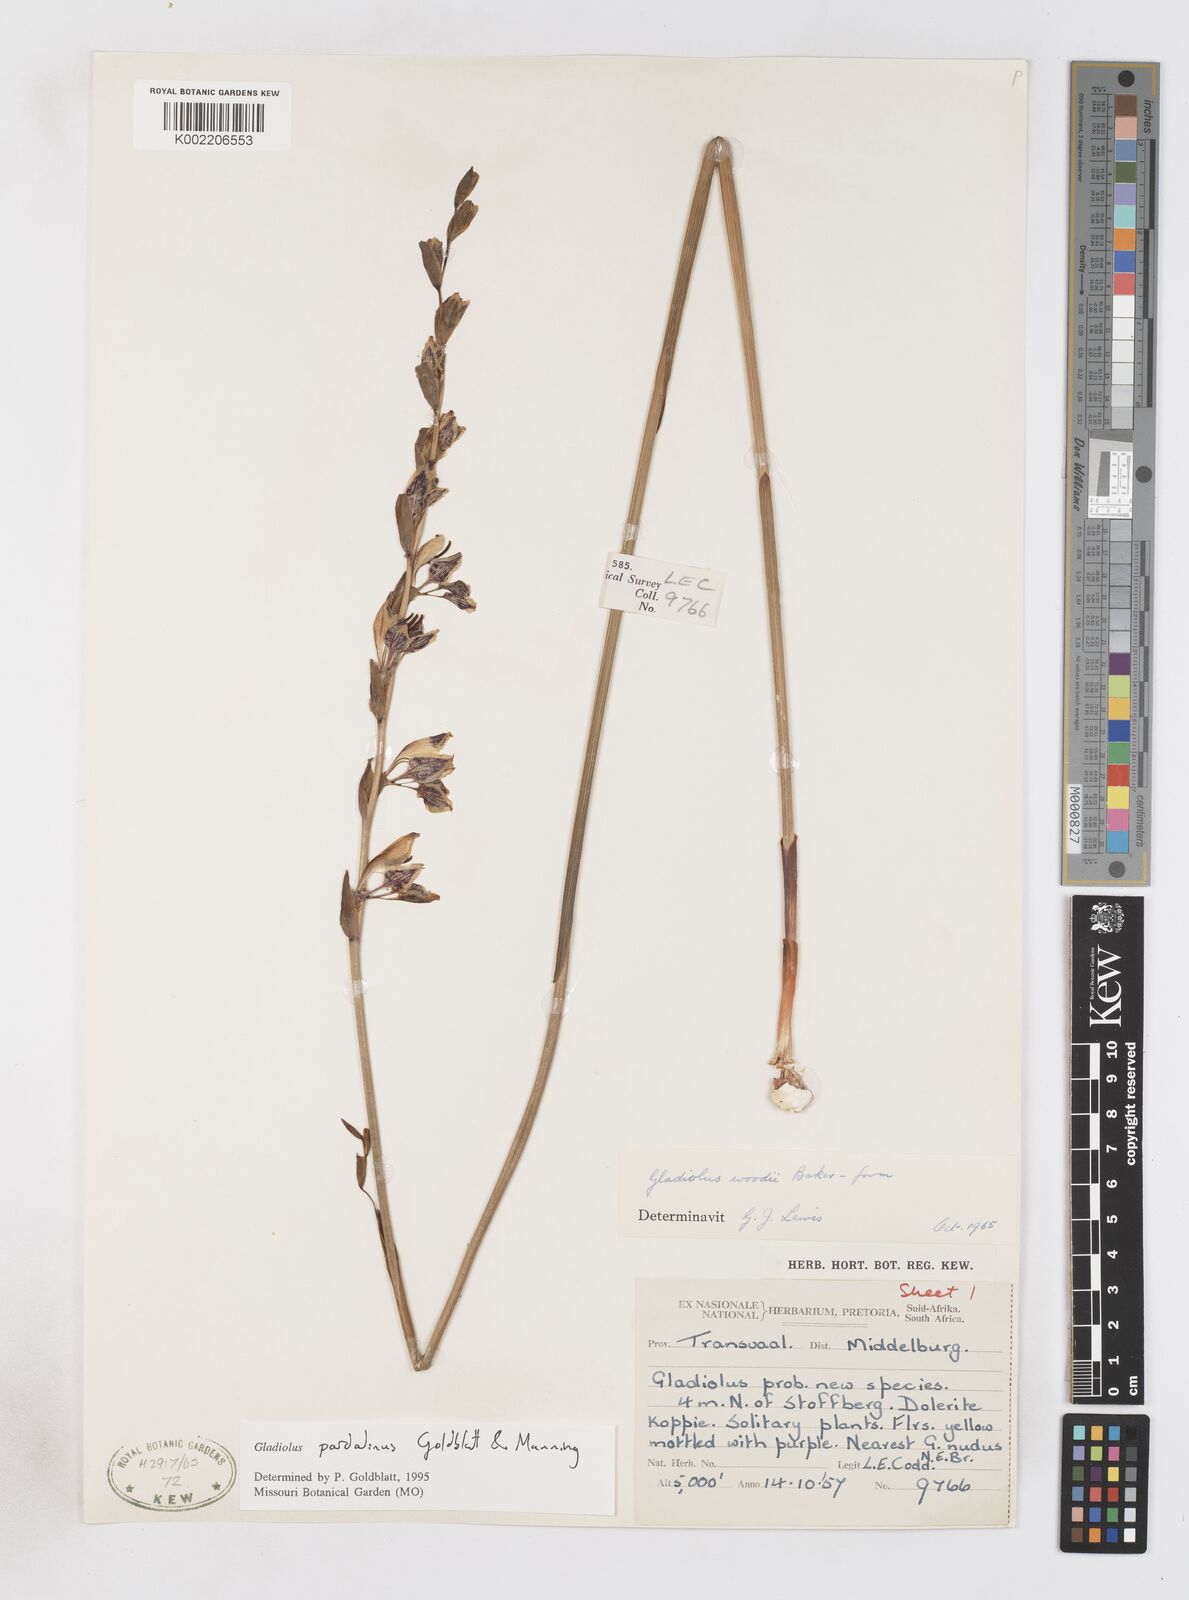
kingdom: Plantae
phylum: Tracheophyta
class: Liliopsida
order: Asparagales
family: Iridaceae
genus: Gladiolus
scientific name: Gladiolus pardalinus
